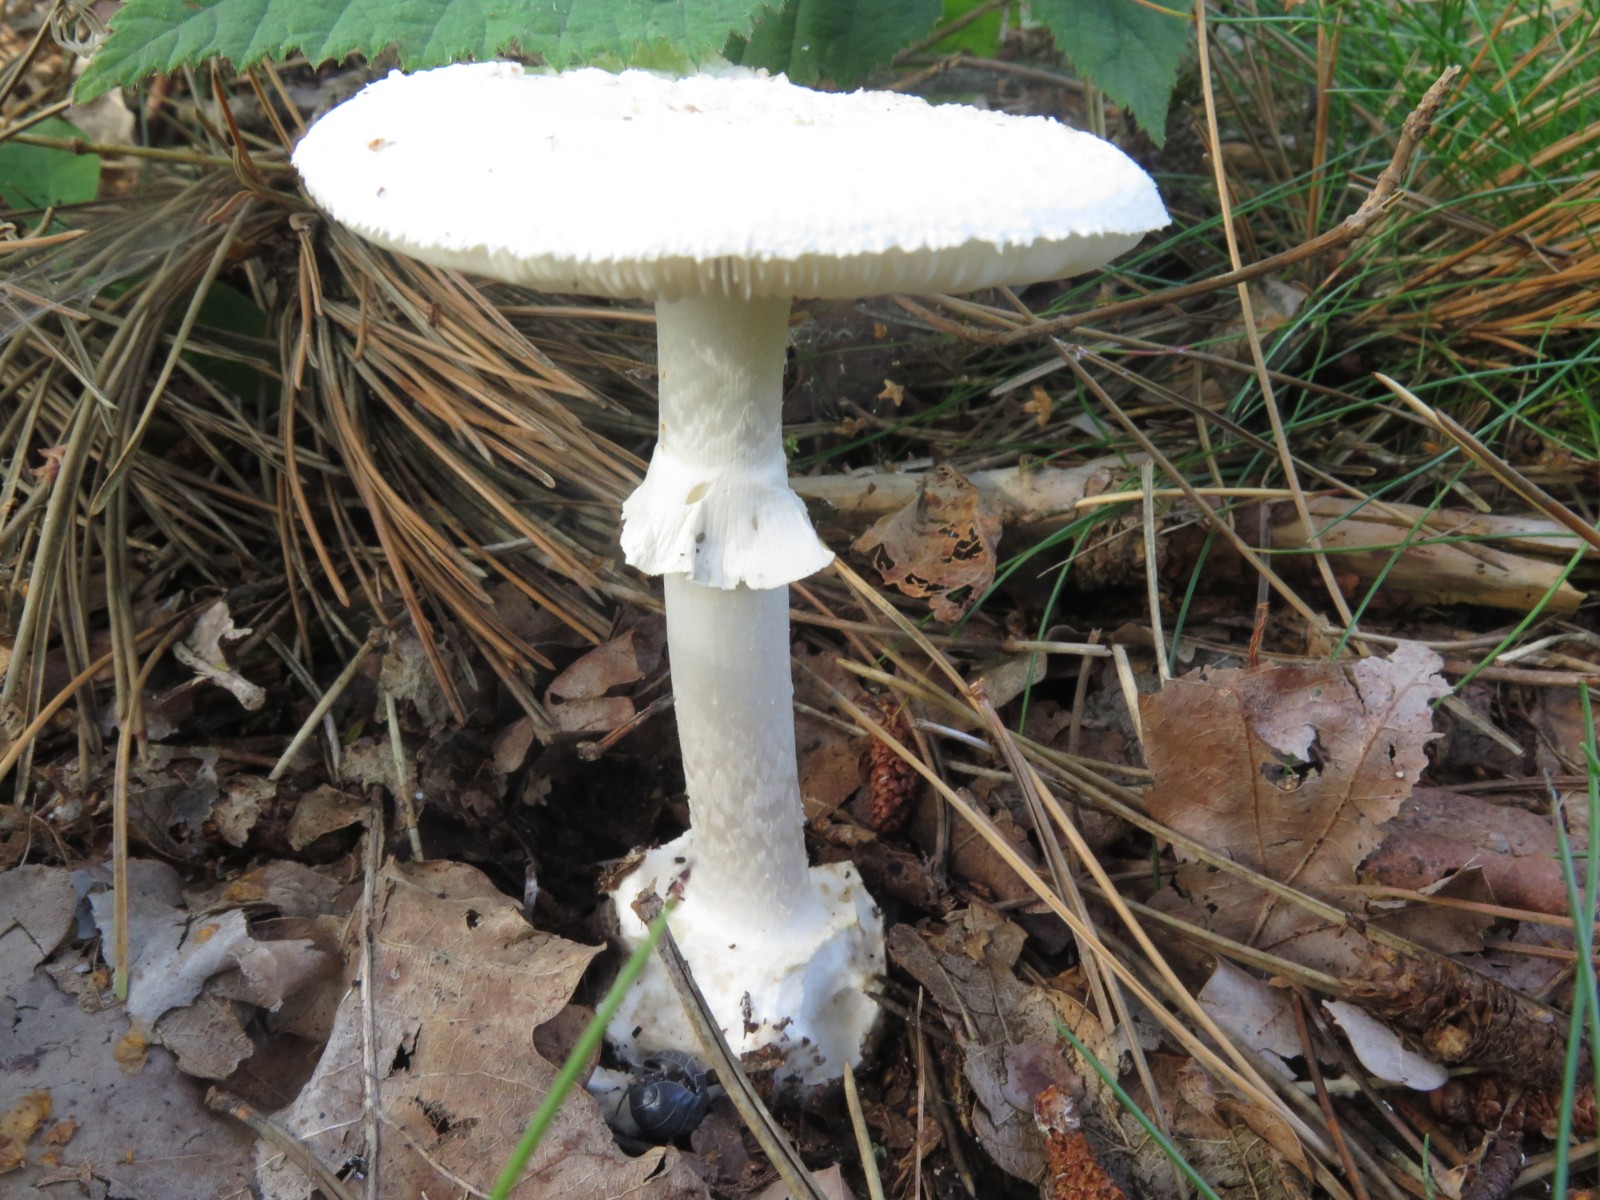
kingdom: Fungi
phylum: Basidiomycota
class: Agaricomycetes
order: Agaricales
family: Amanitaceae
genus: Amanita
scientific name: Amanita citrina
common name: kugleknoldet fluesvamp
